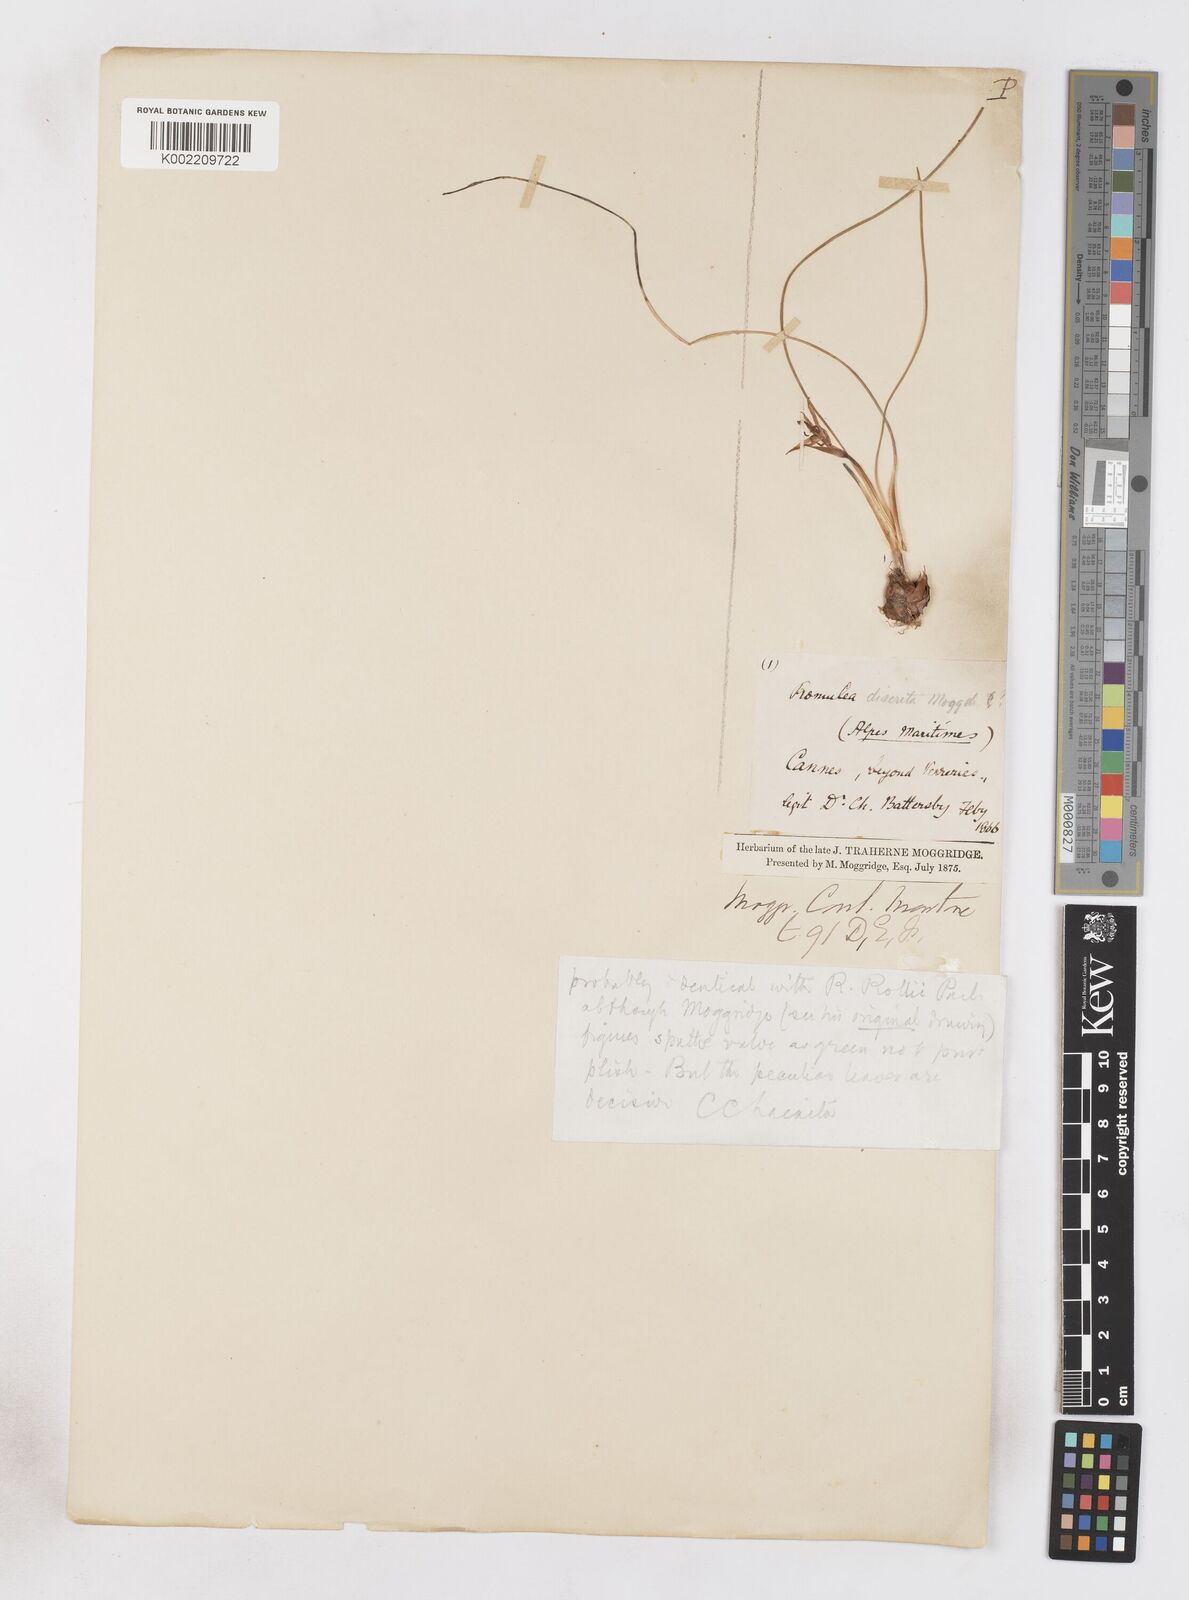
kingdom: Plantae
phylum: Tracheophyta
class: Liliopsida
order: Asparagales
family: Iridaceae
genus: Romulea
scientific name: Romulea columnae
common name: Sand-crocus
